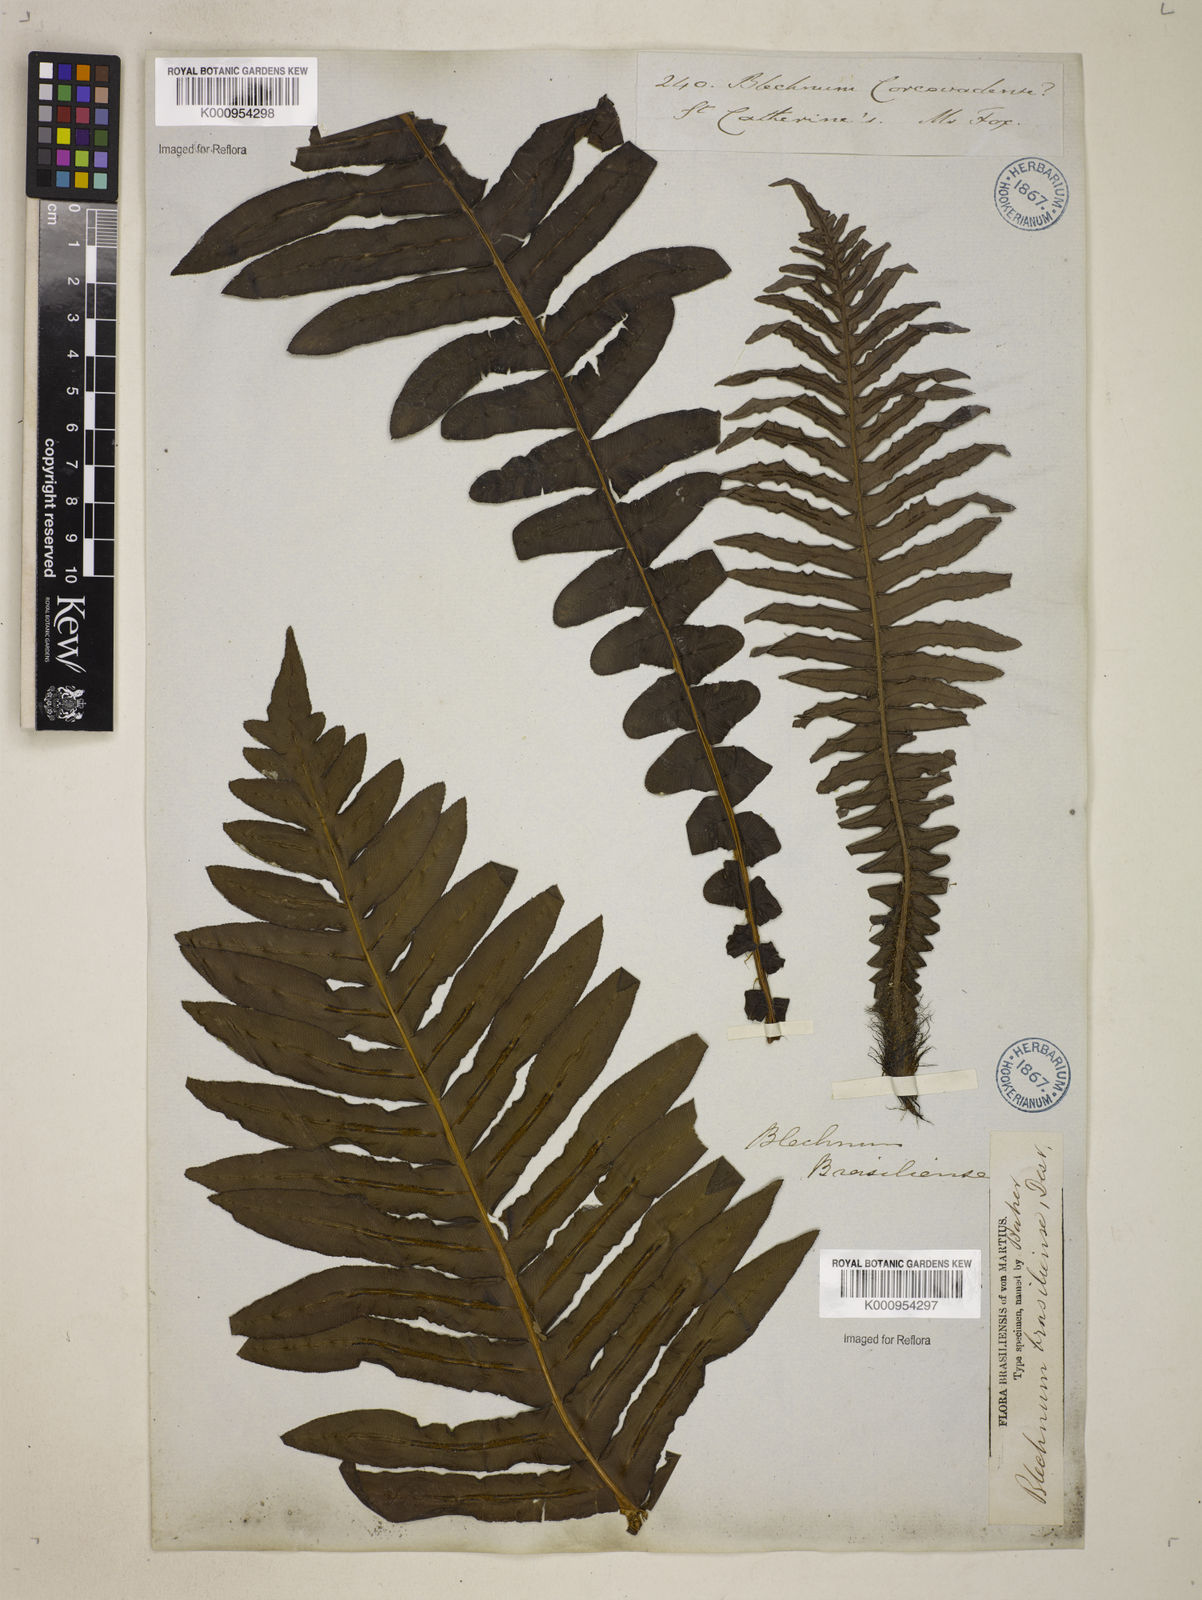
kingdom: Plantae
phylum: Tracheophyta
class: Polypodiopsida
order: Polypodiales
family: Blechnaceae
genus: Neoblechnum
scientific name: Neoblechnum brasiliense
